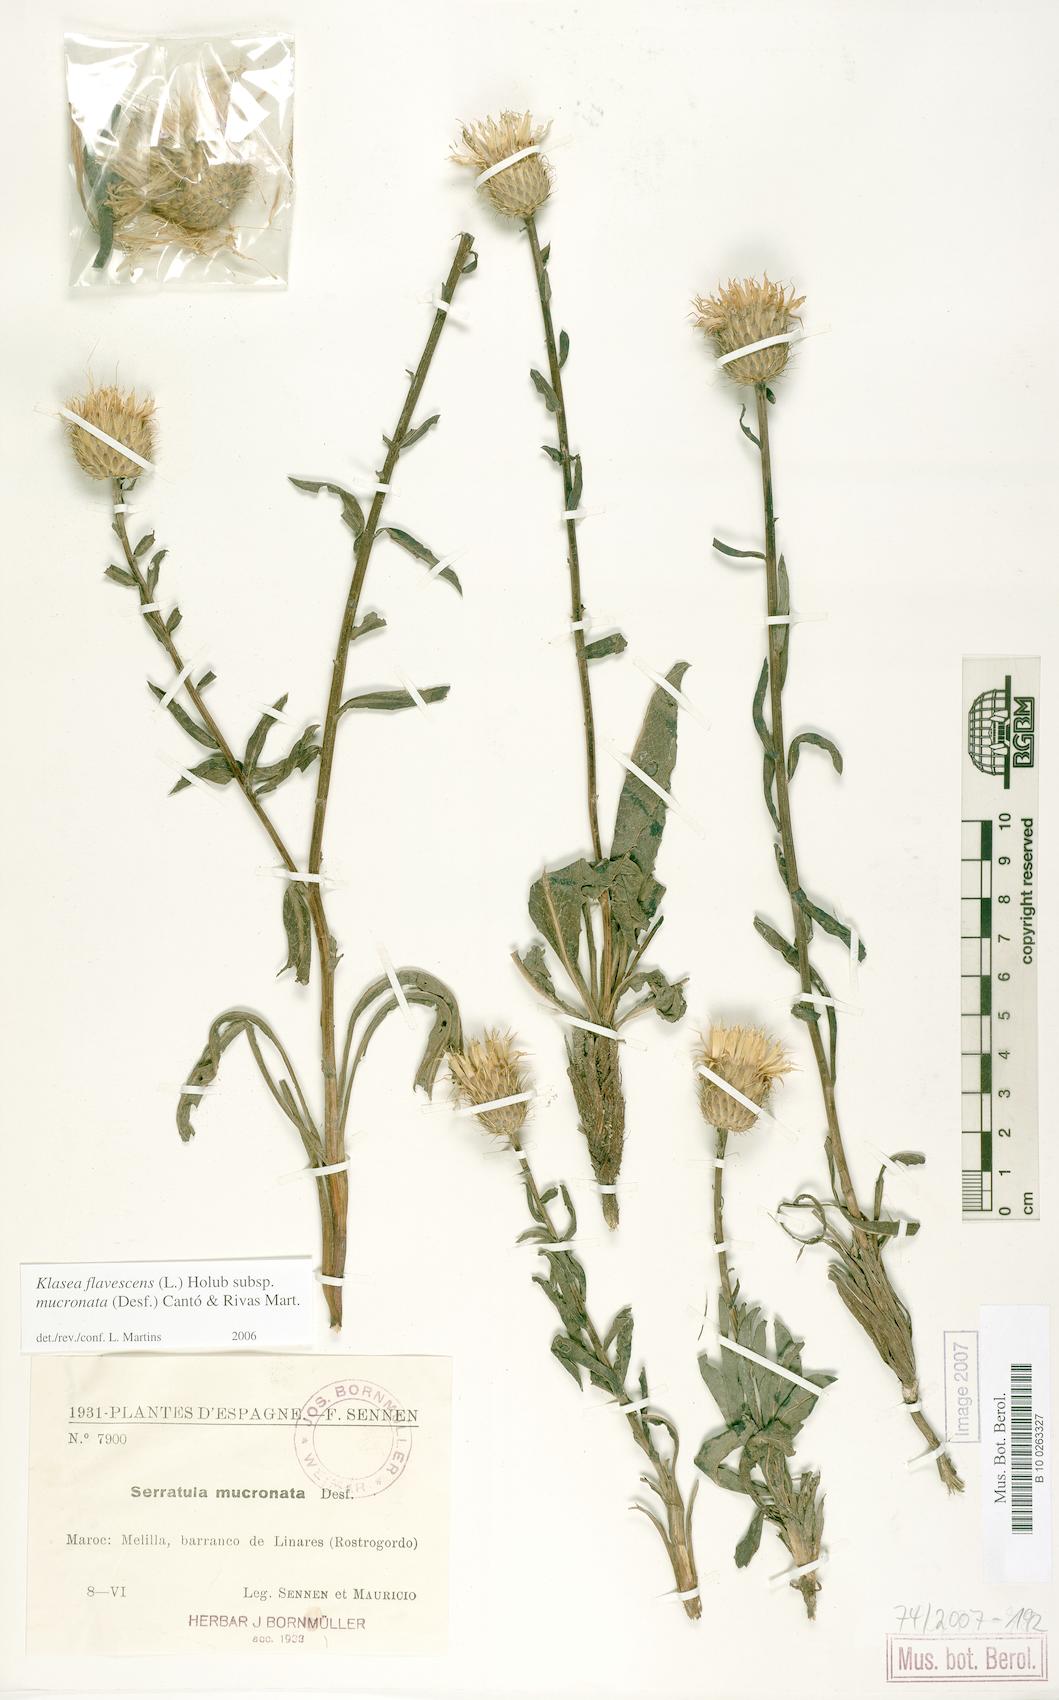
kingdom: Plantae
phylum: Tracheophyta
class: Magnoliopsida
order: Asterales
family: Asteraceae
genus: Klasea
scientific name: Klasea flavescens
